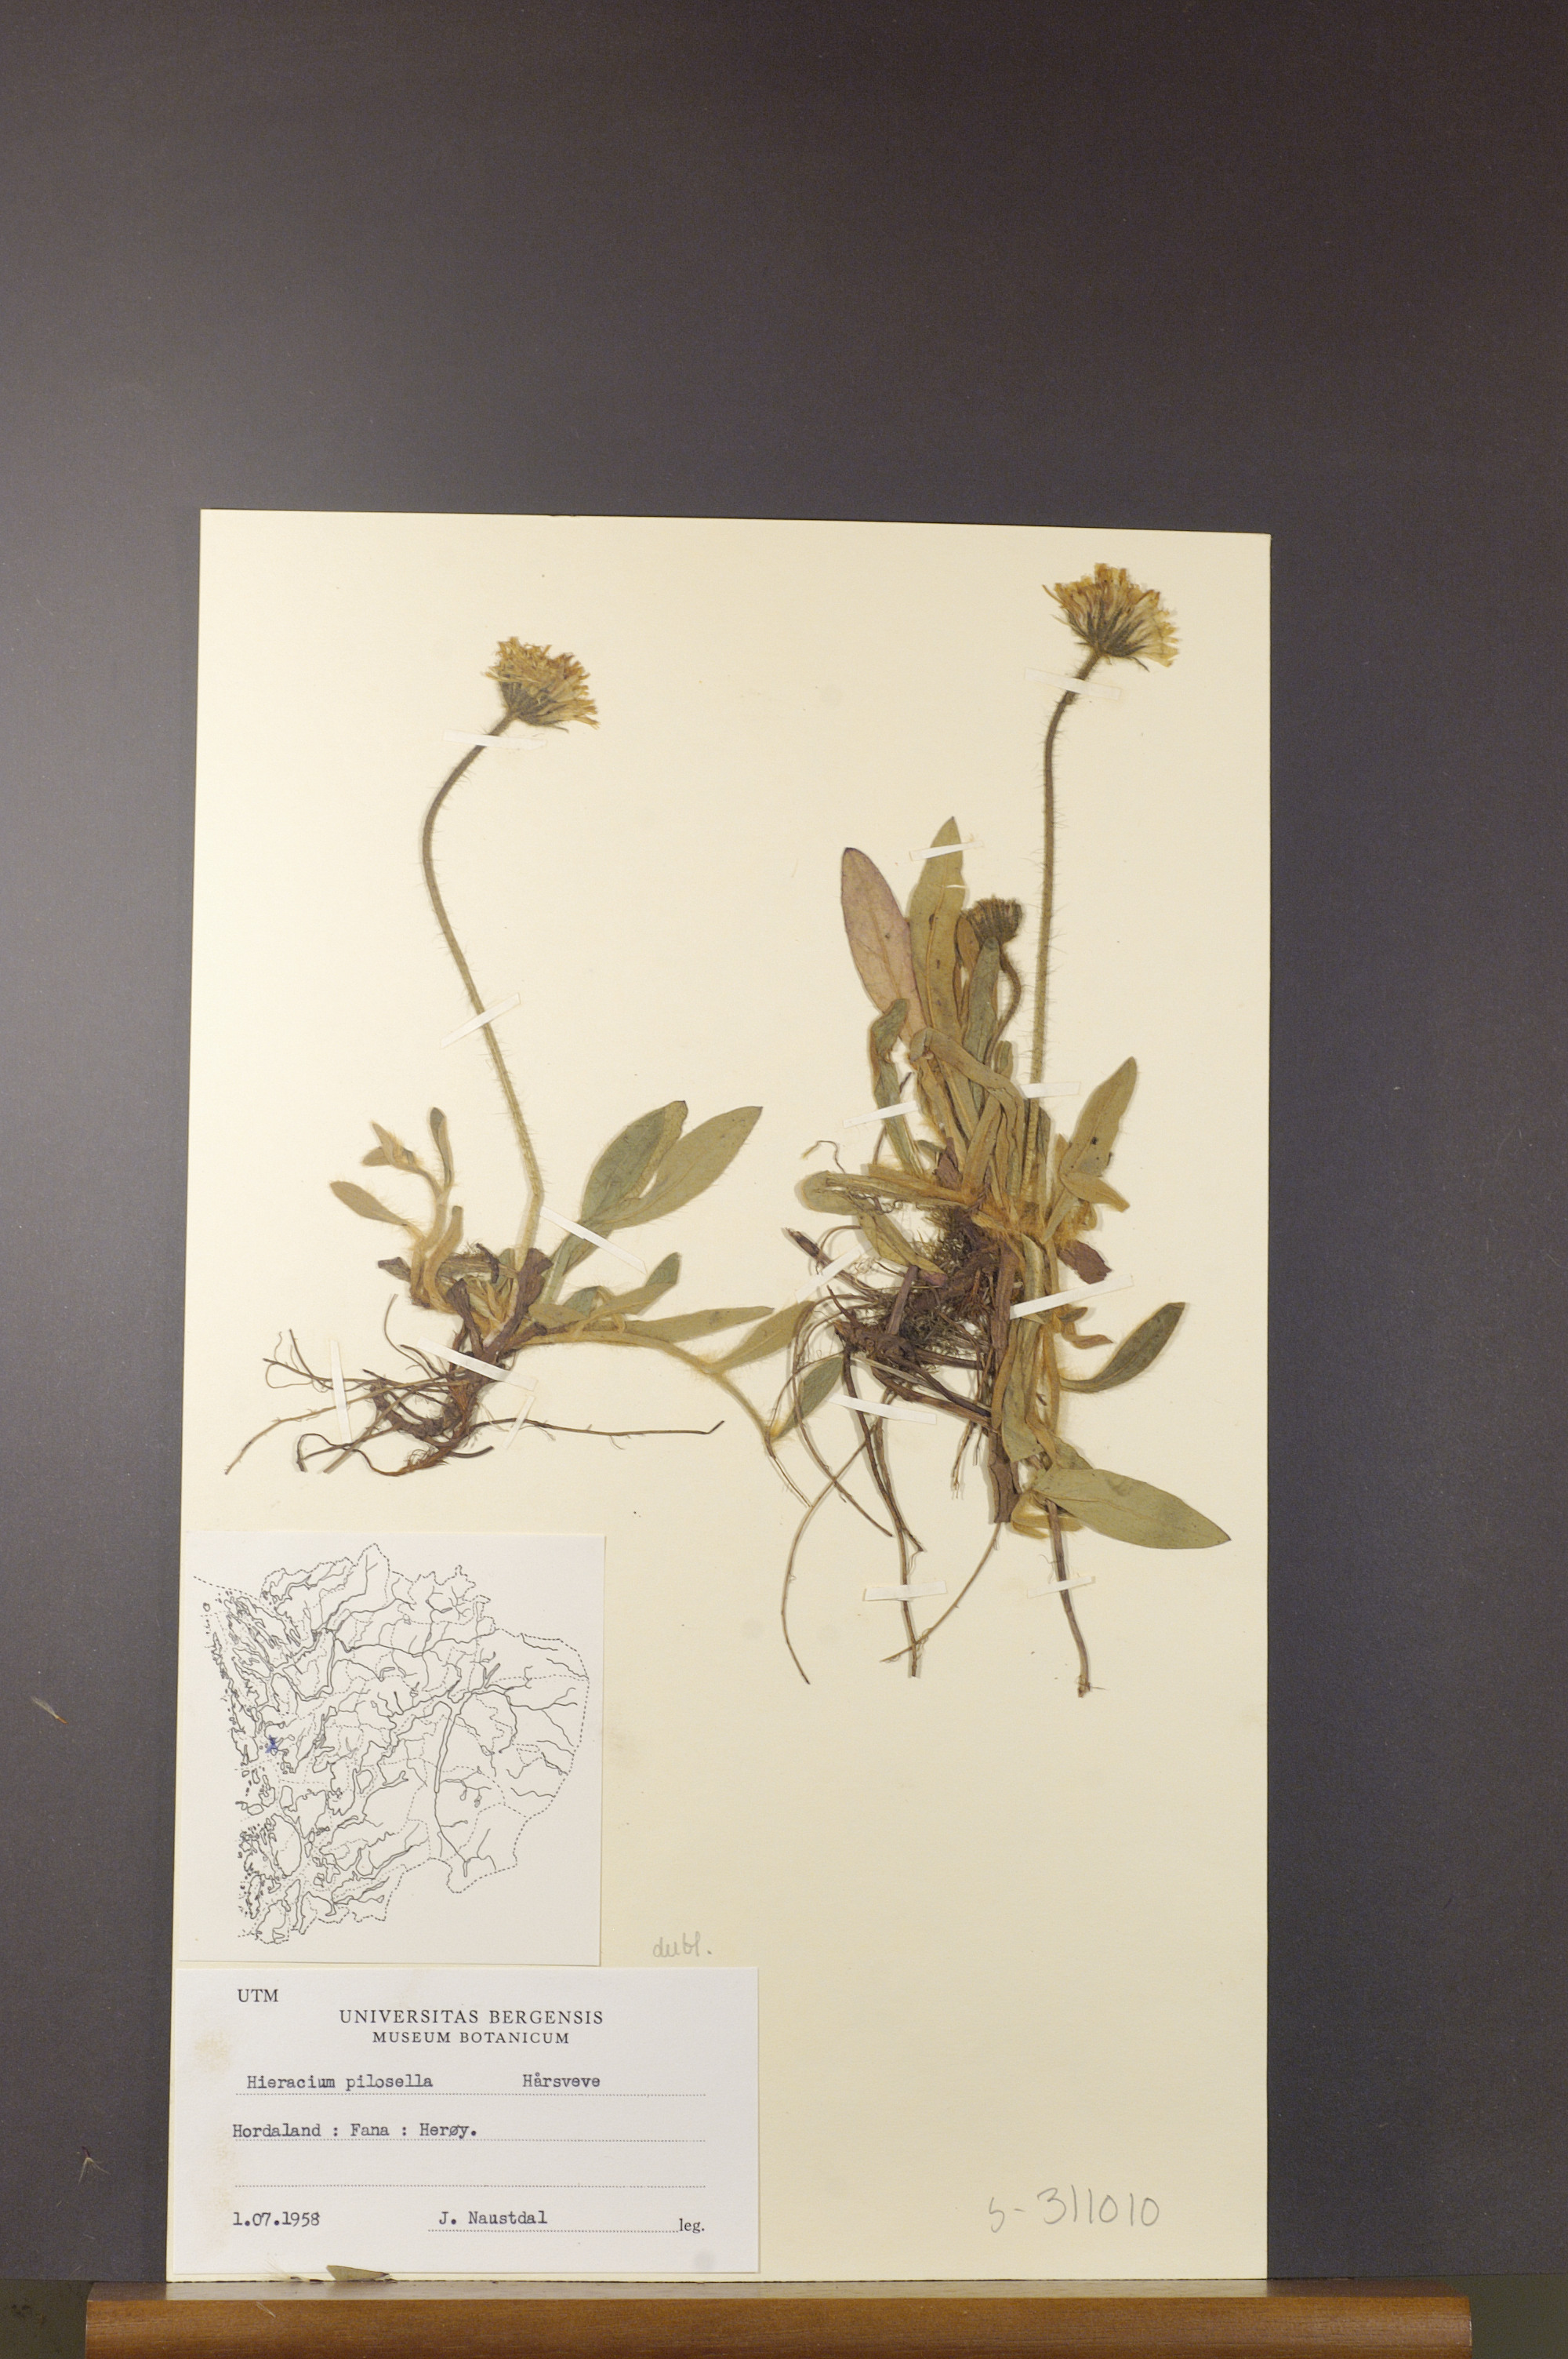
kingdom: Plantae
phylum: Tracheophyta
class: Magnoliopsida
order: Asterales
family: Asteraceae
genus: Pilosella
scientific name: Pilosella officinarum
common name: Mouse-ear hawkweed
